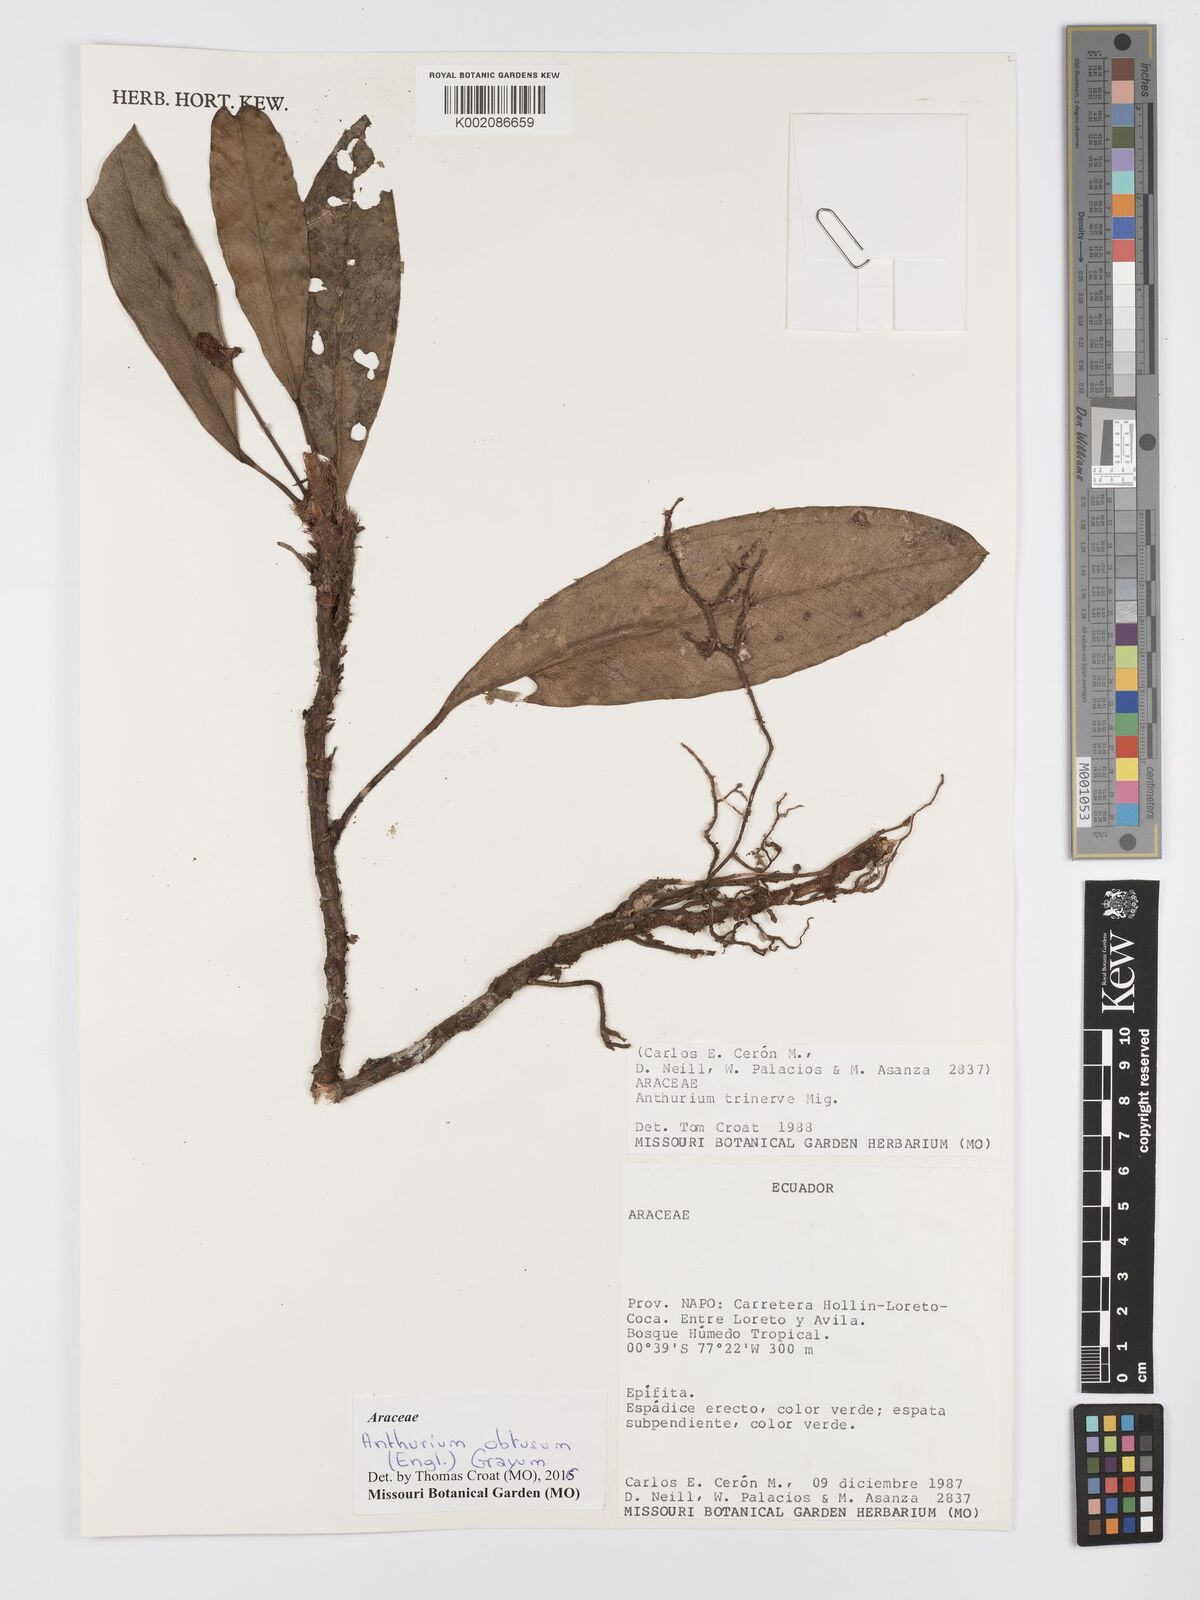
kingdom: Plantae
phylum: Tracheophyta
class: Liliopsida
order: Alismatales
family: Araceae
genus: Anthurium
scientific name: Anthurium obtusum
